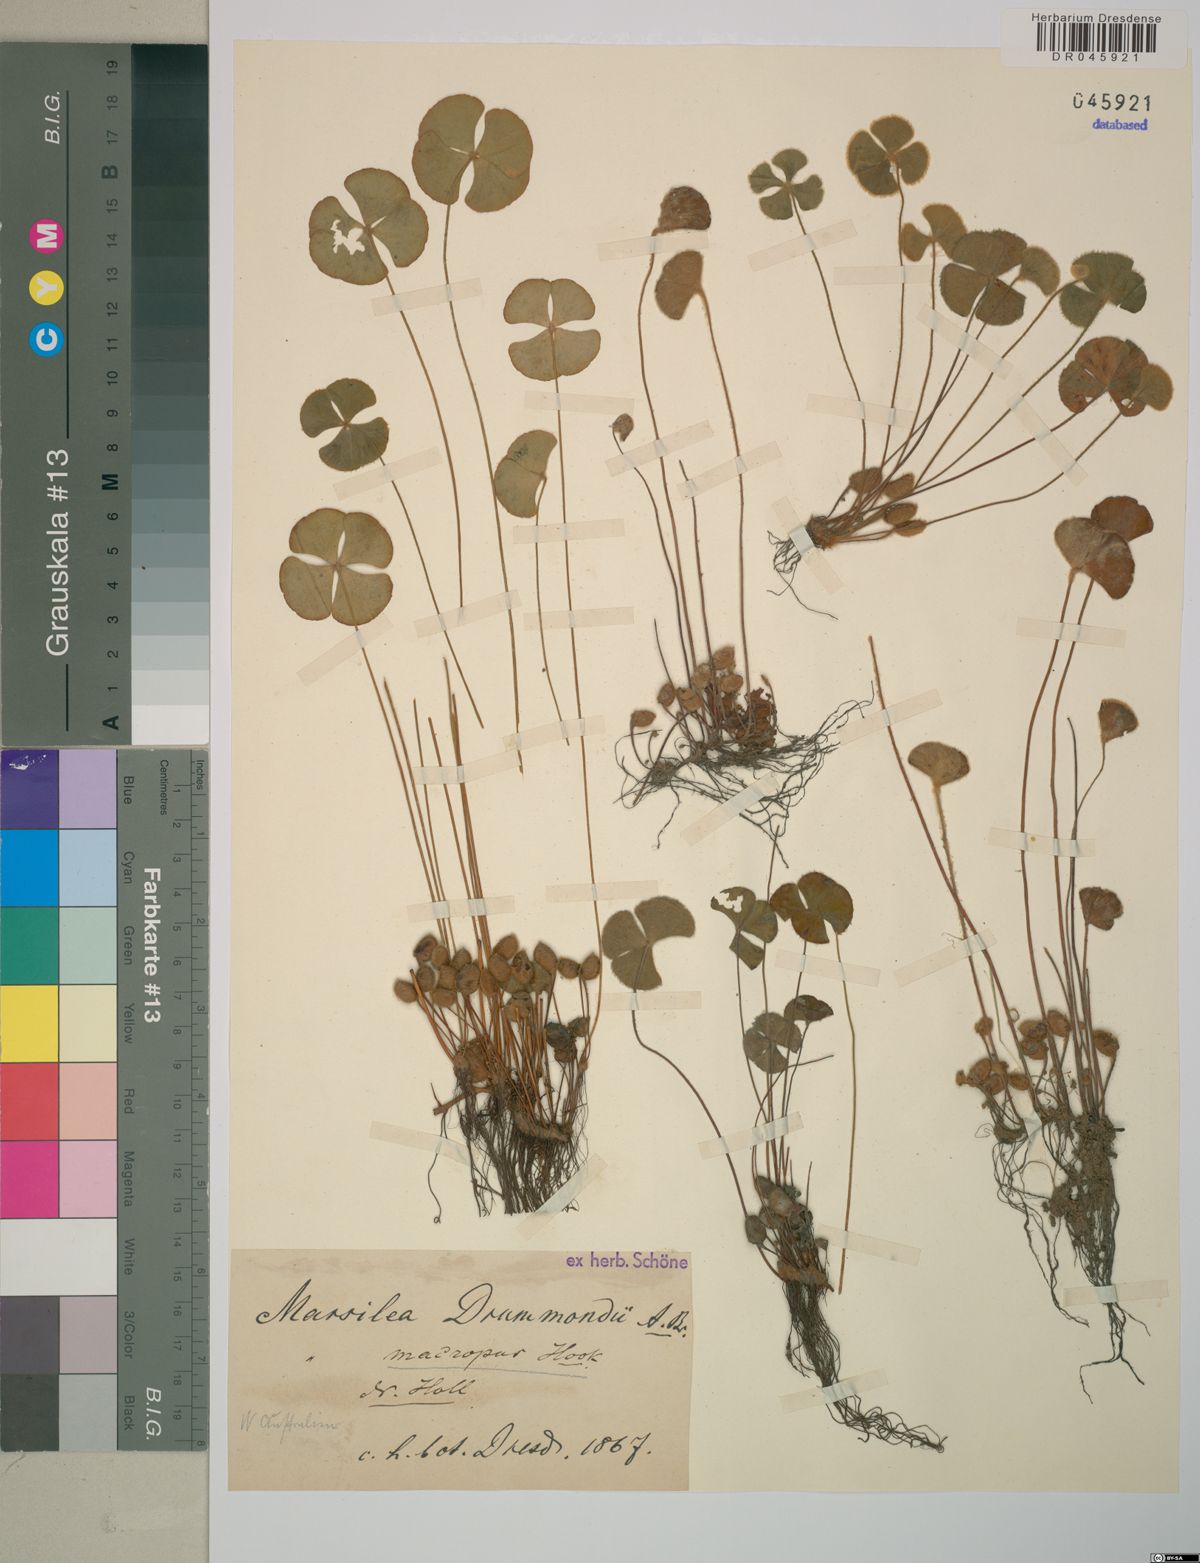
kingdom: Plantae
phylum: Tracheophyta
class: Polypodiopsida
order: Salviniales
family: Marsileaceae
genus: Marsilea
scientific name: Marsilea drummondii
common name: Nardoo
